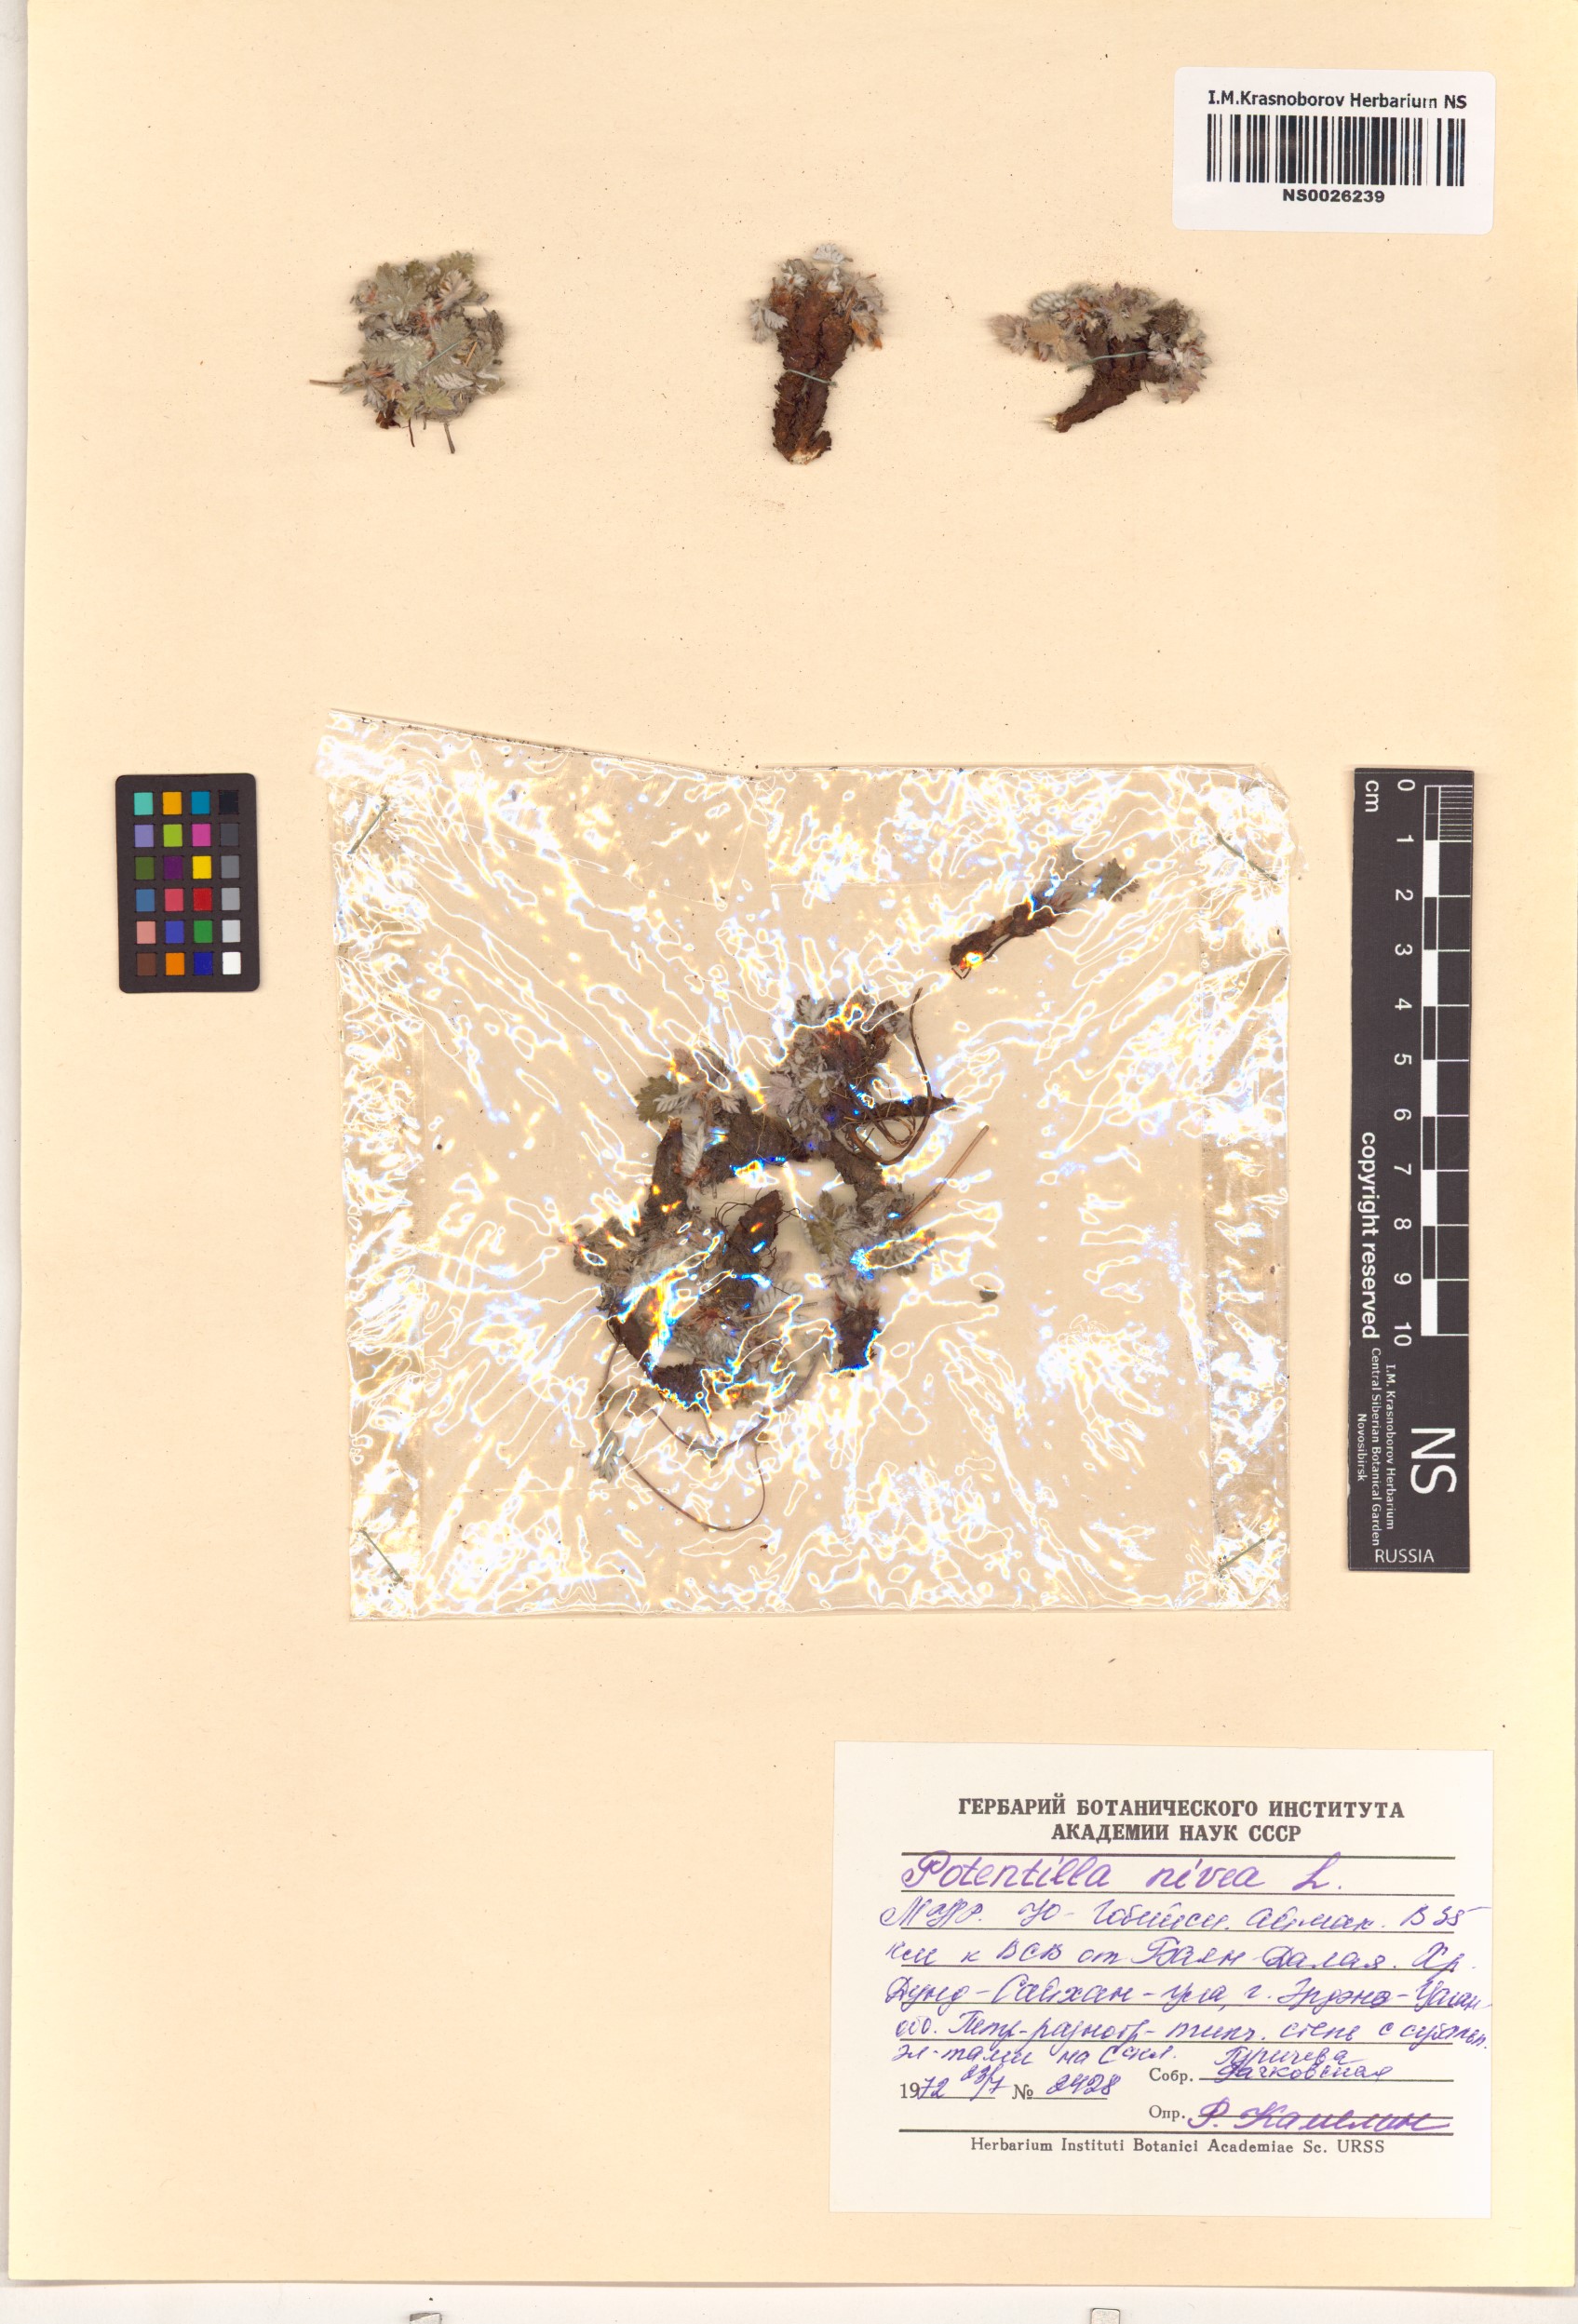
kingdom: Plantae
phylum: Tracheophyta
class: Magnoliopsida
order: Rosales
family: Rosaceae
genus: Potentilla
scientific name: Potentilla nivea
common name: Snow cinquefoil
